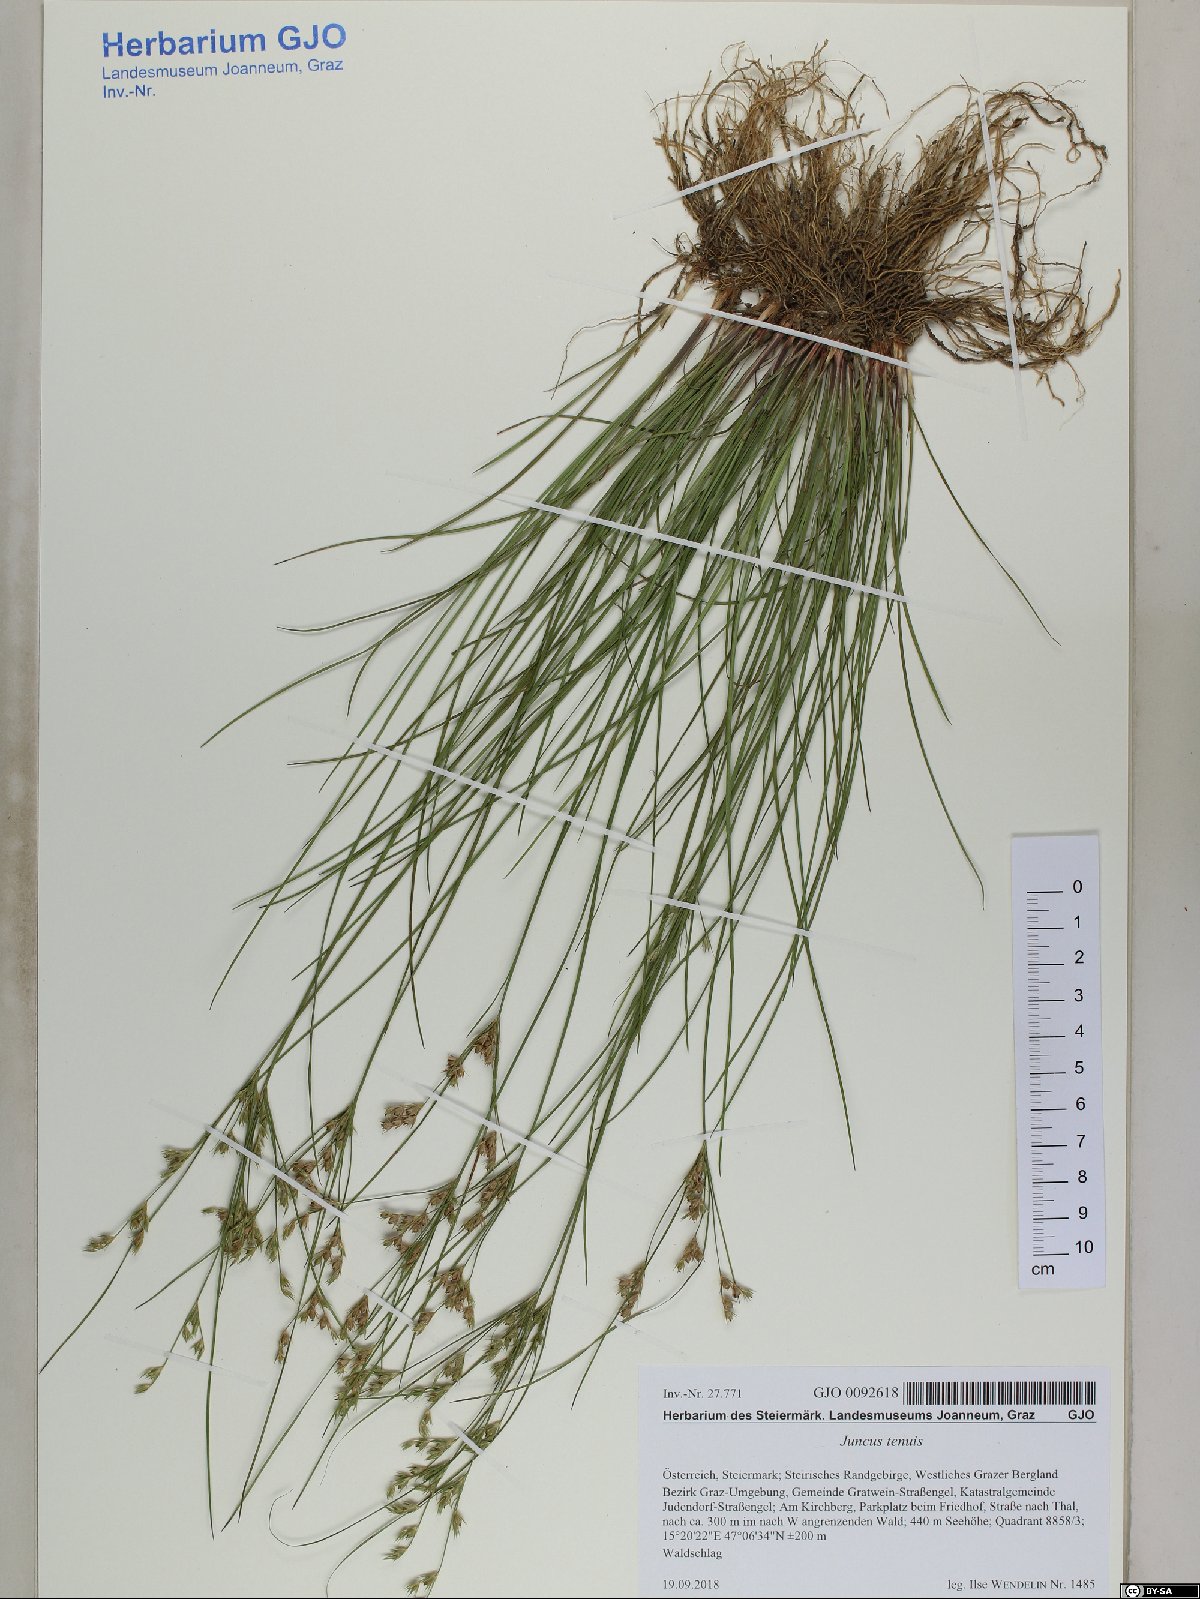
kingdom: Plantae
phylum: Tracheophyta
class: Liliopsida
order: Poales
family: Juncaceae
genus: Juncus
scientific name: Juncus tenuis
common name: Slender rush
